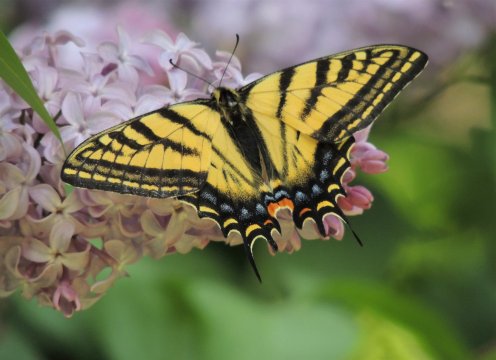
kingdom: Animalia
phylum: Arthropoda
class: Insecta
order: Lepidoptera
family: Papilionidae
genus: Papilio
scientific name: Papilio multicaudata
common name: Two-tailed Swallowtail
